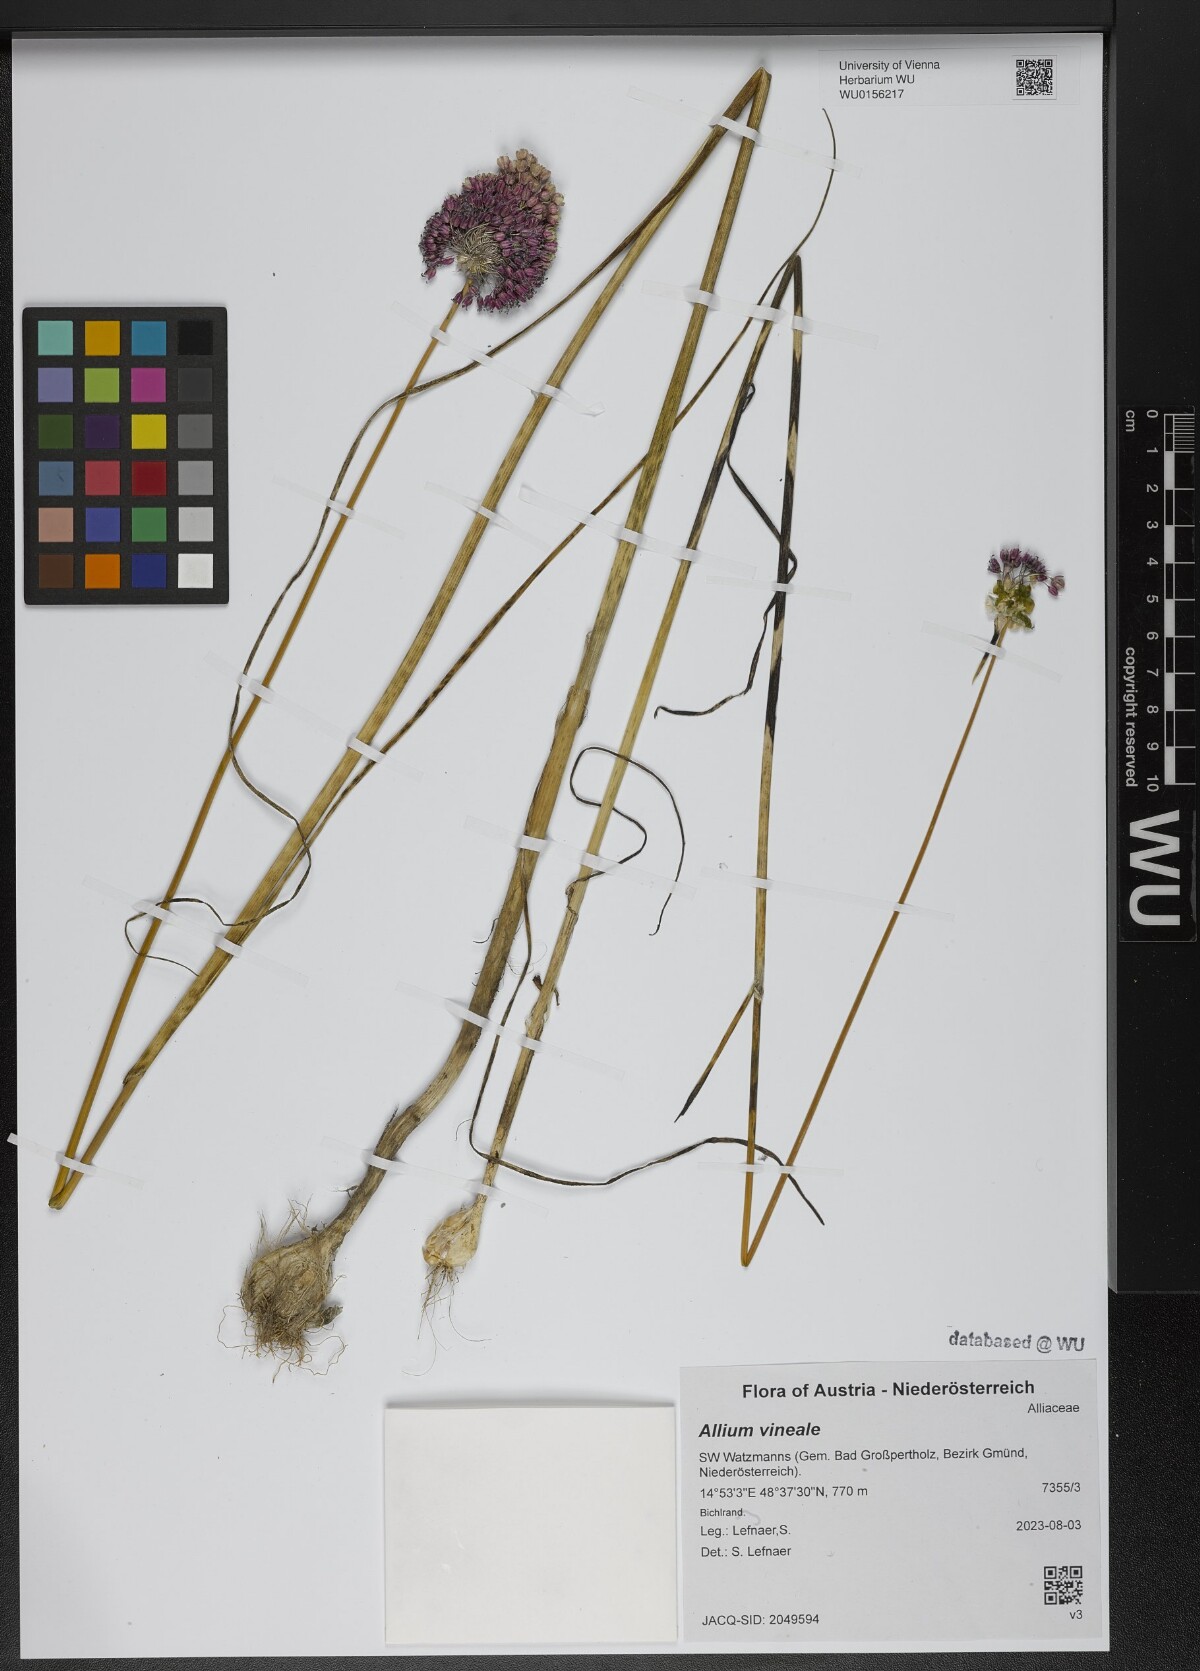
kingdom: Plantae
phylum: Tracheophyta
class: Liliopsida
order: Asparagales
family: Amaryllidaceae
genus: Allium
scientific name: Allium vineale
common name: Crow garlic
